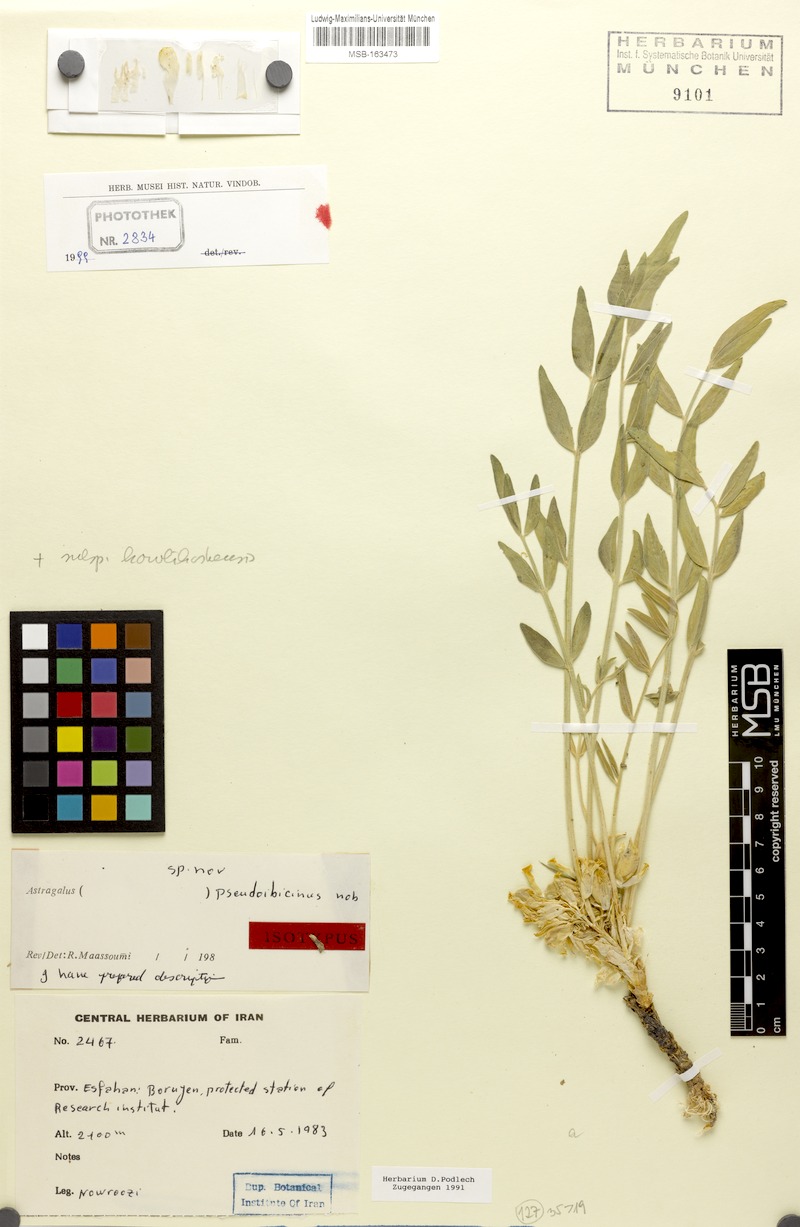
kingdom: Plantae
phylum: Tracheophyta
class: Magnoliopsida
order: Fabales
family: Fabaceae
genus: Astragalus
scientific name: Astragalus pseudoibicinus
